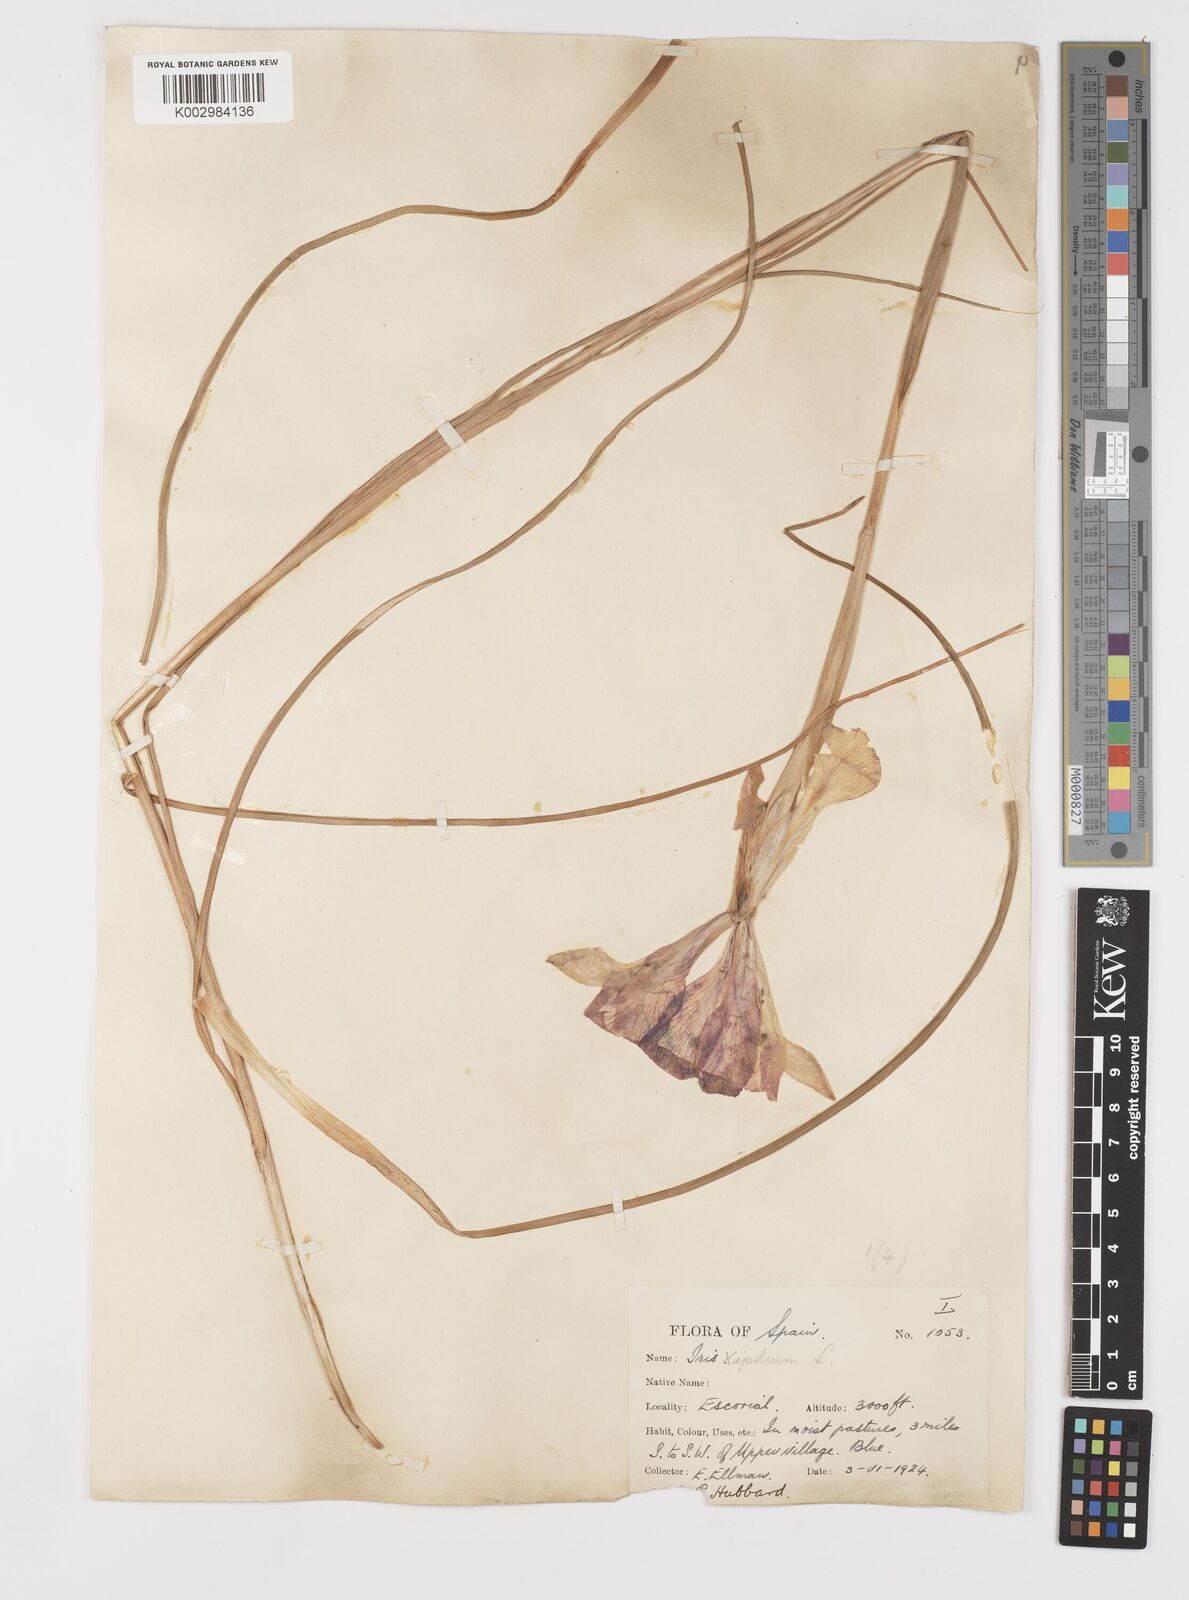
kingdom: Plantae
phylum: Tracheophyta
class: Liliopsida
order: Asparagales
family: Iridaceae
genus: Iris
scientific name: Iris xiphium
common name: Spanish iris
